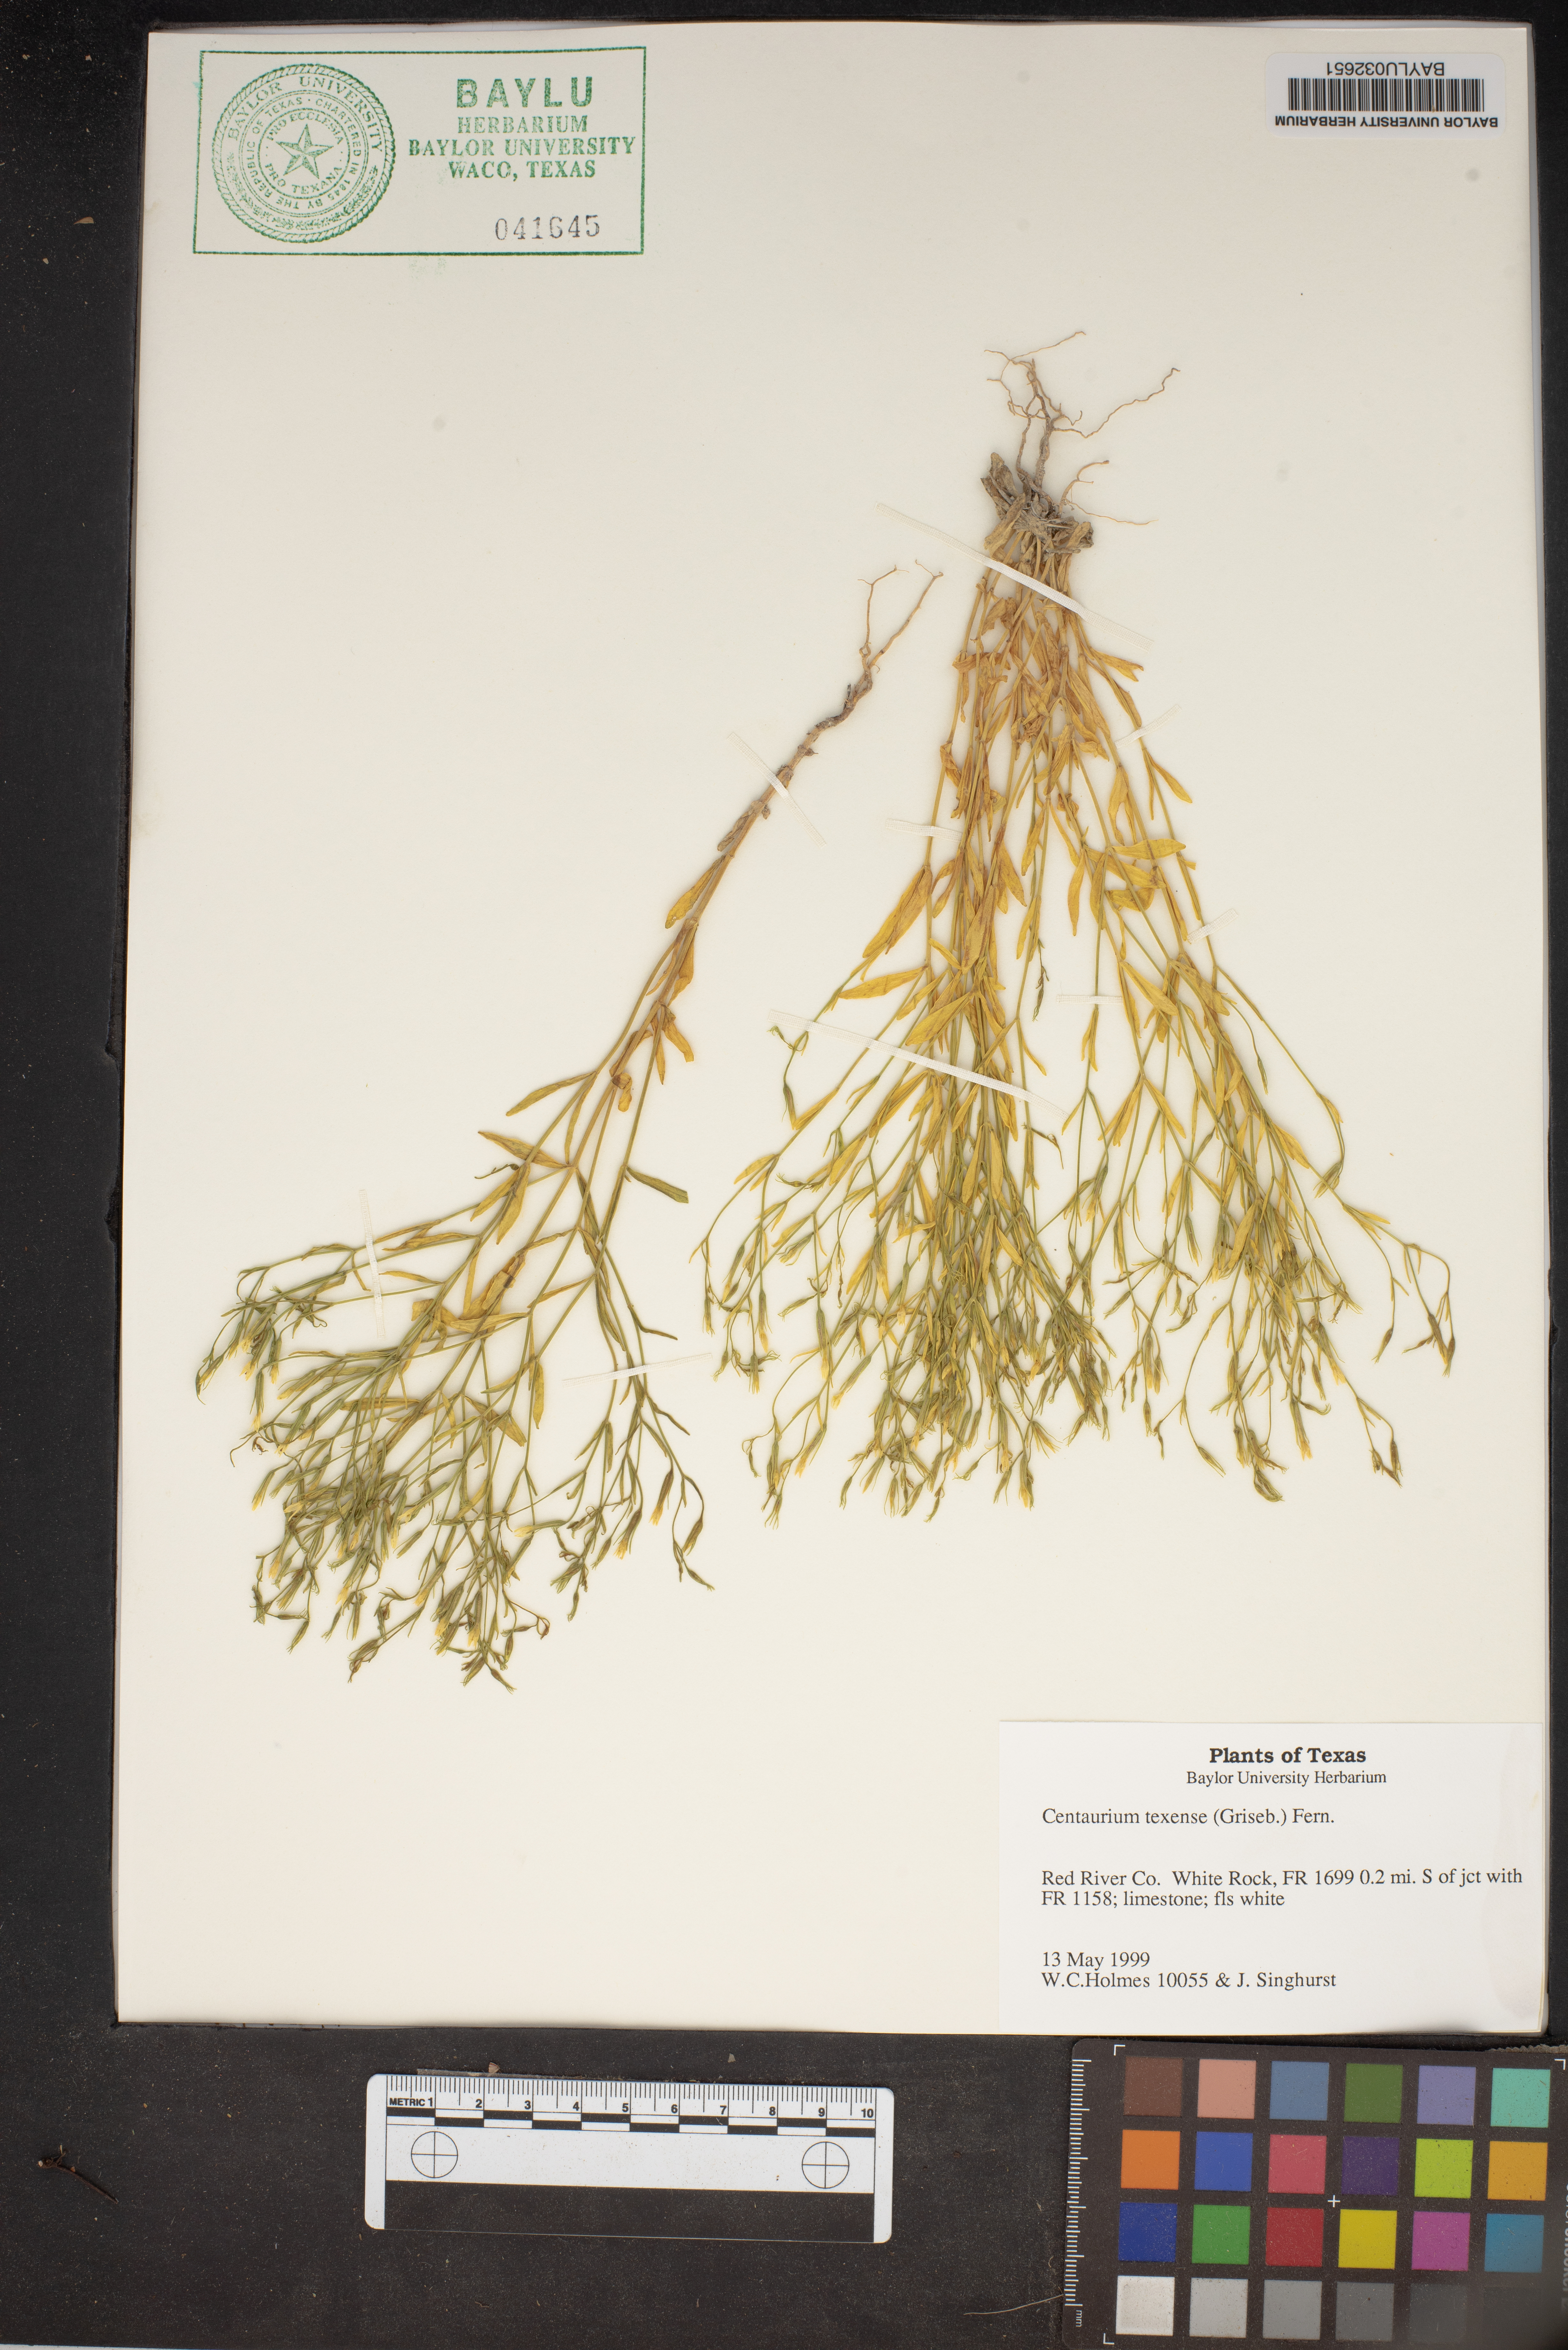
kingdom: Plantae
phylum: Tracheophyta
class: Magnoliopsida
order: Gentianales
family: Gentianaceae
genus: Zeltnera
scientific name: Zeltnera texensis
